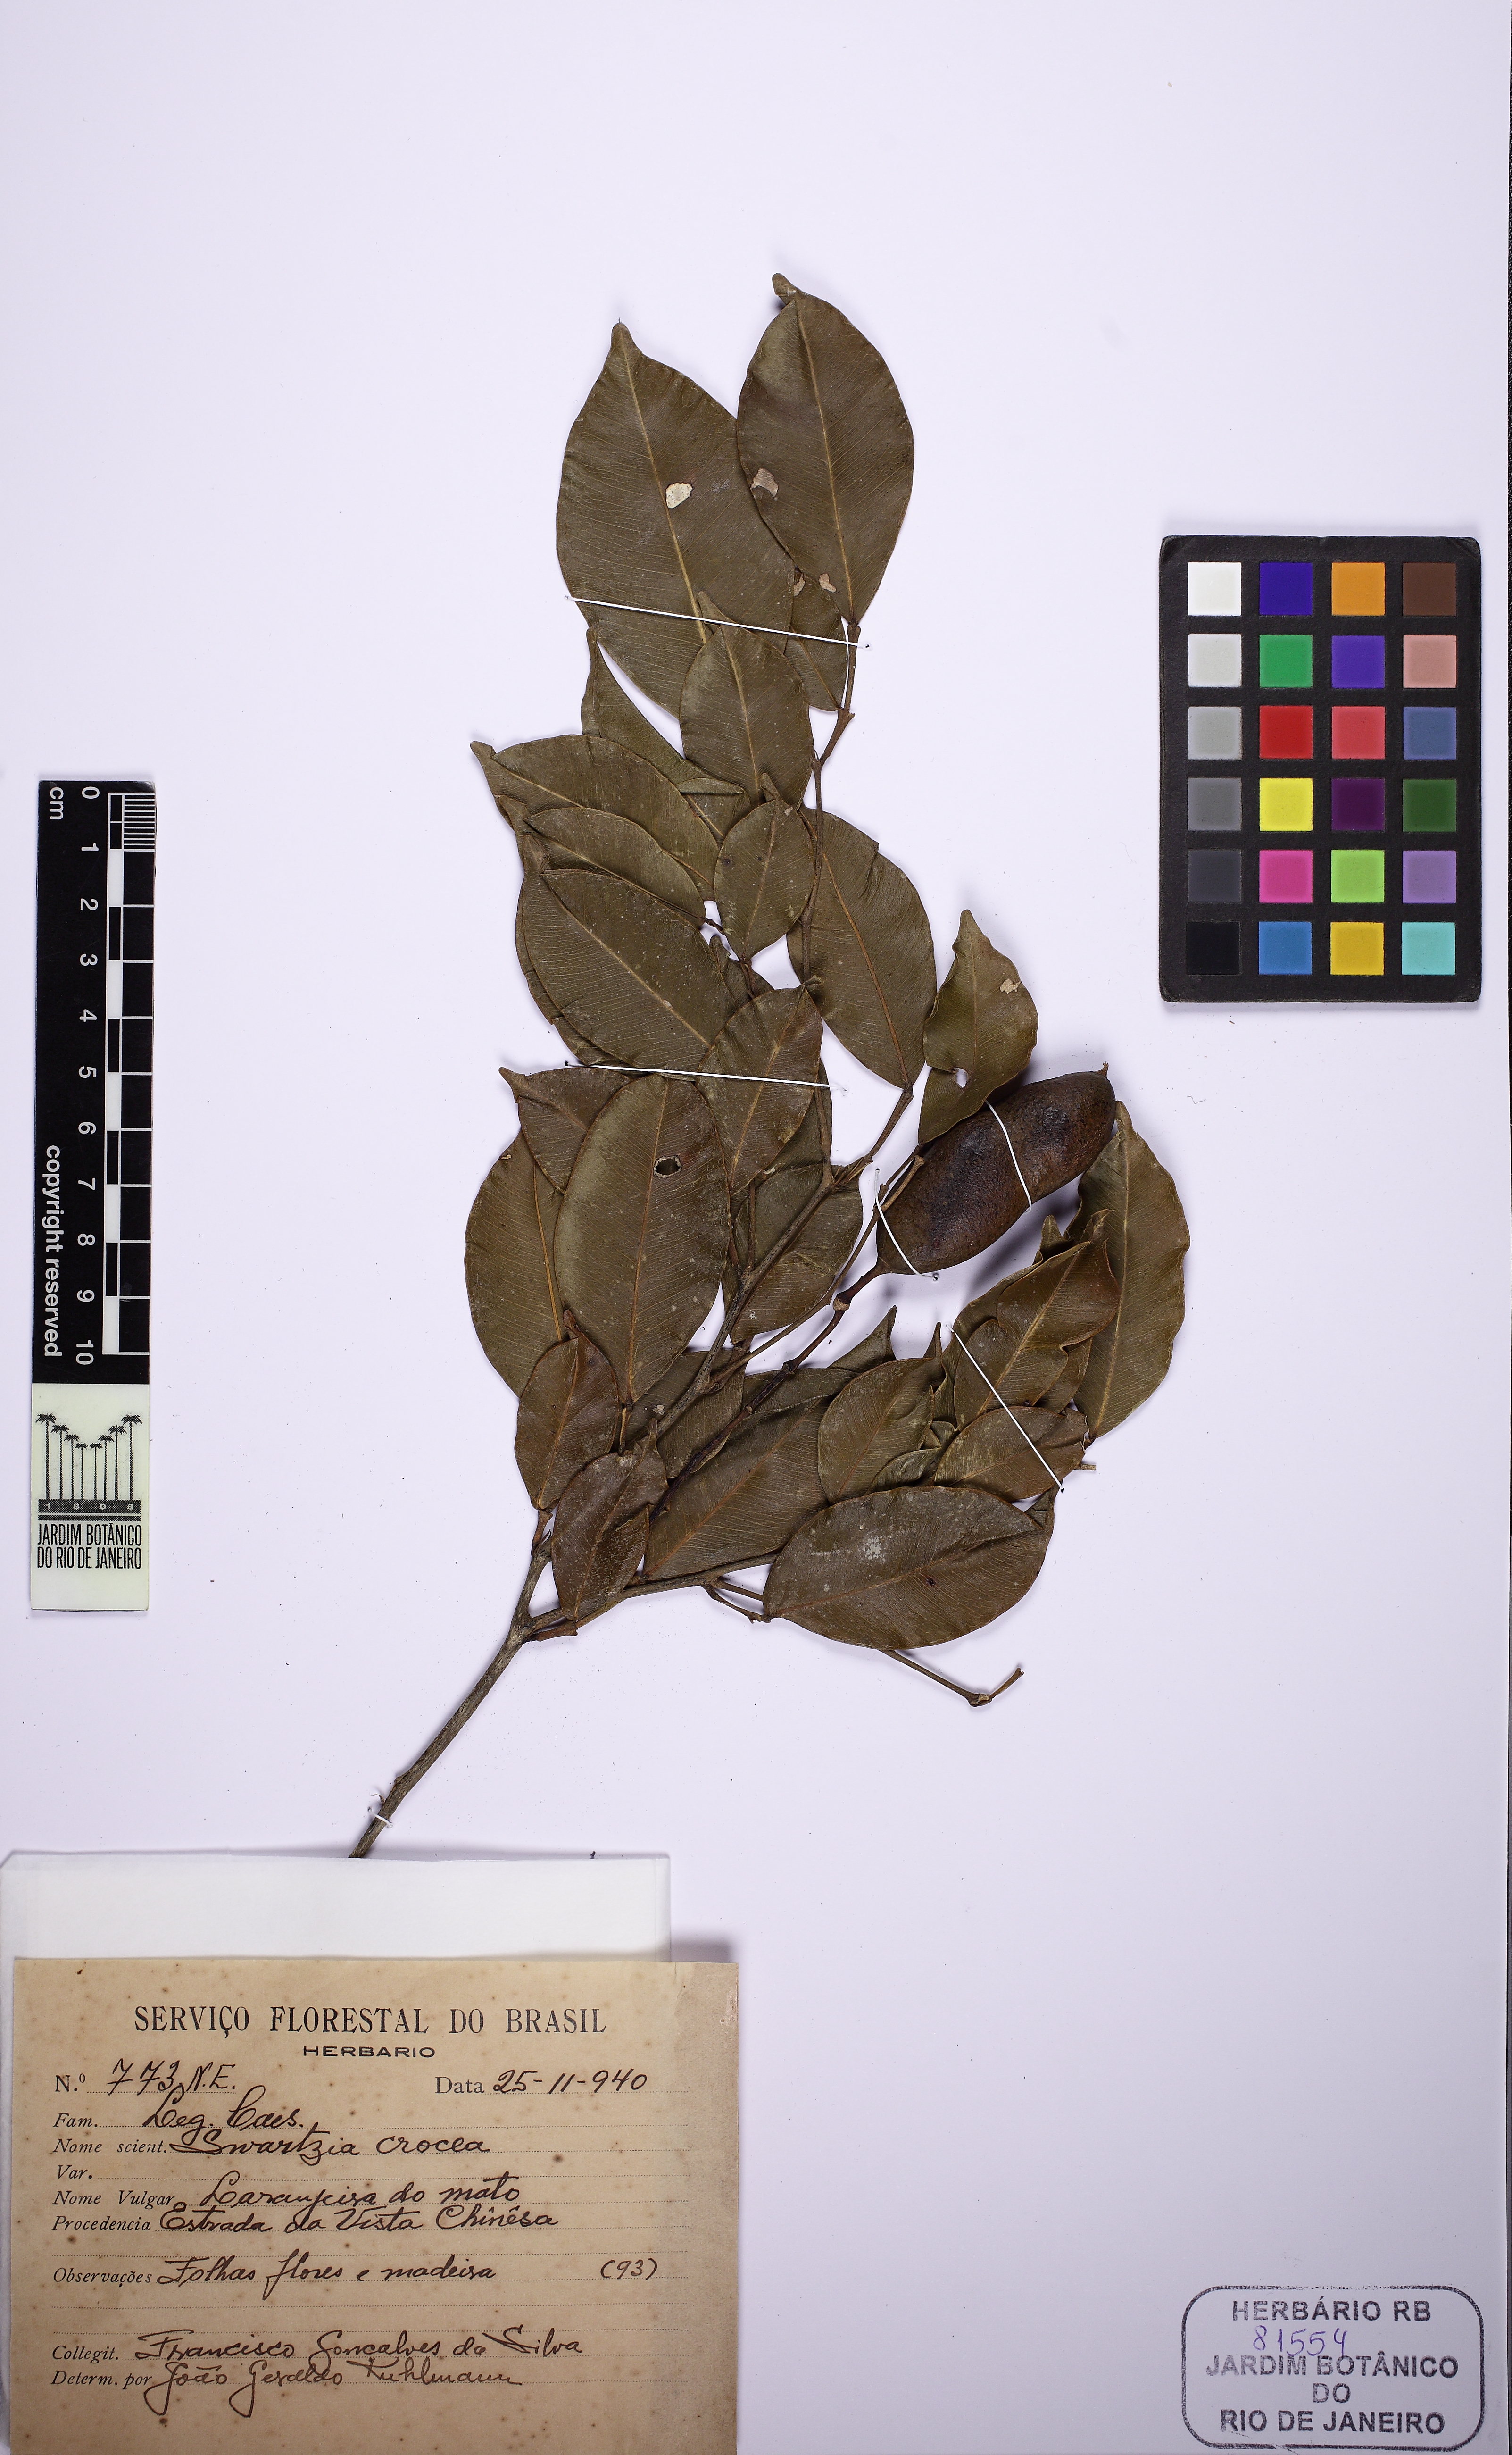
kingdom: Plantae
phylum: Tracheophyta
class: Magnoliopsida
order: Fabales
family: Fabaceae
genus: Swartzia
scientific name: Swartzia simplex
